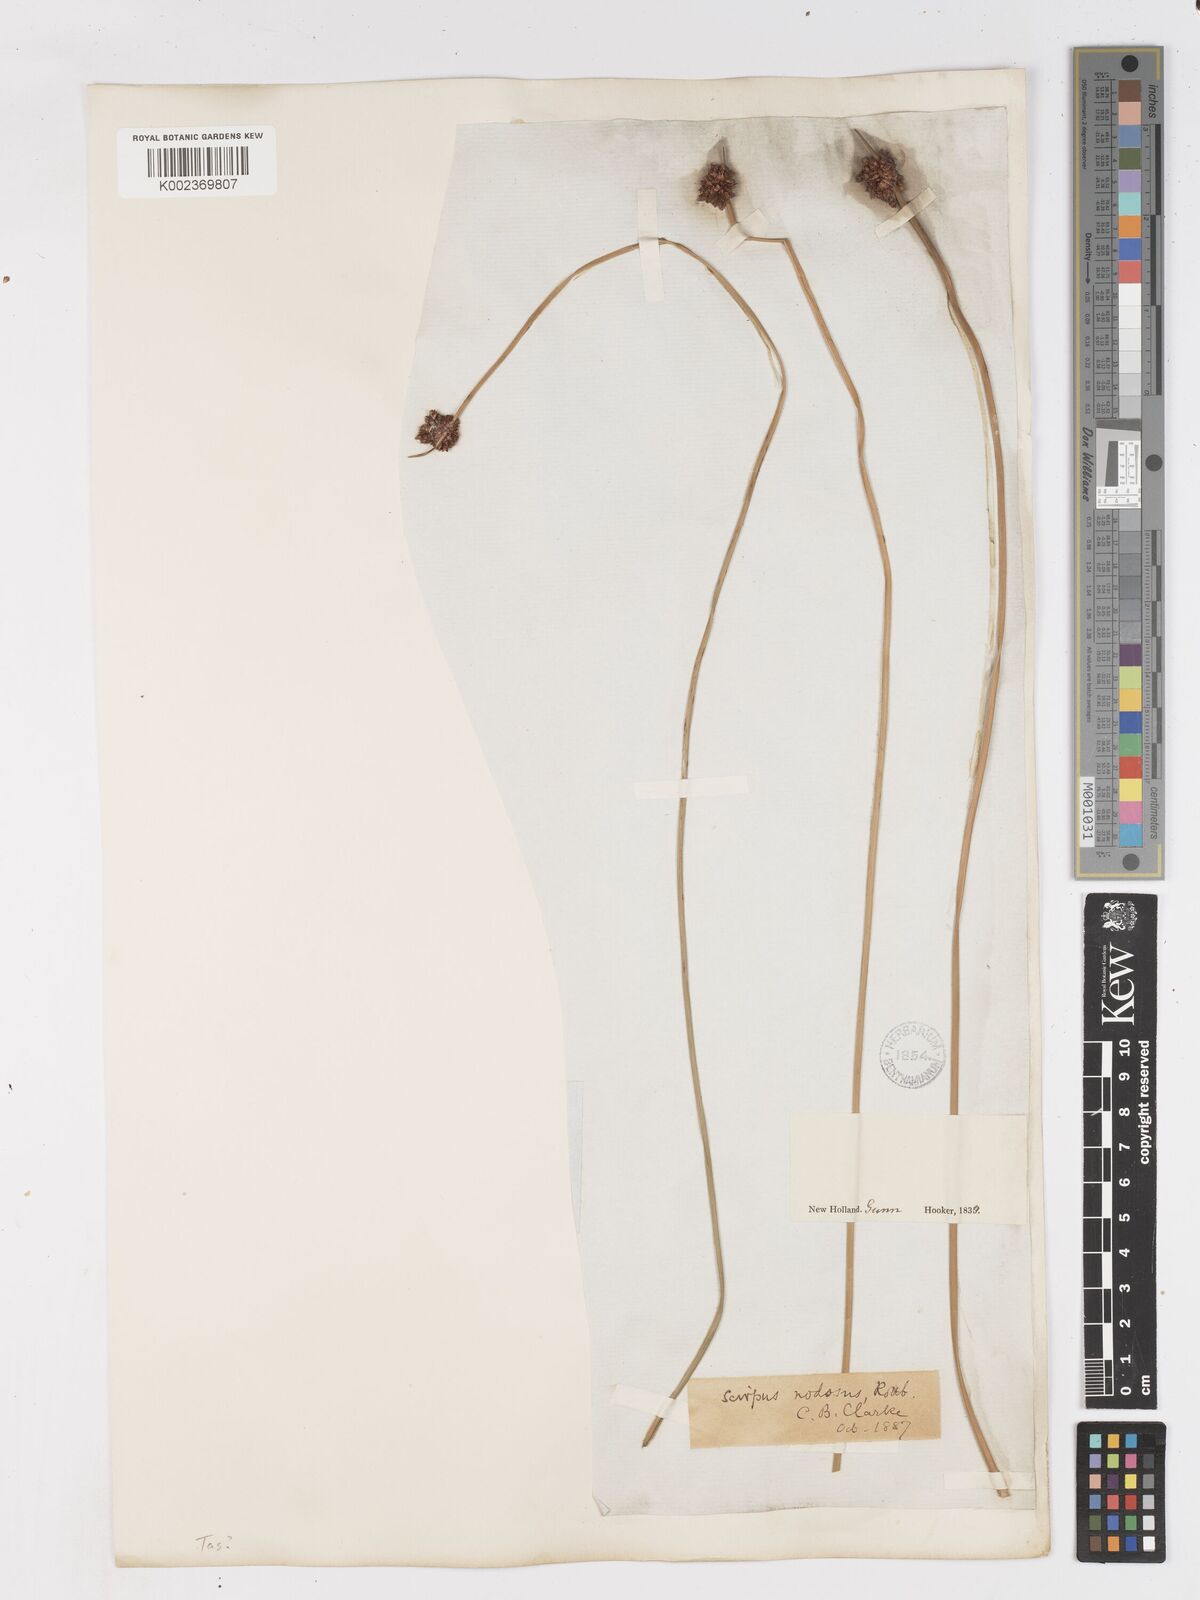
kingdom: Plantae
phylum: Tracheophyta
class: Liliopsida
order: Poales
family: Cyperaceae
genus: Ficinia
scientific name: Ficinia nodosa
